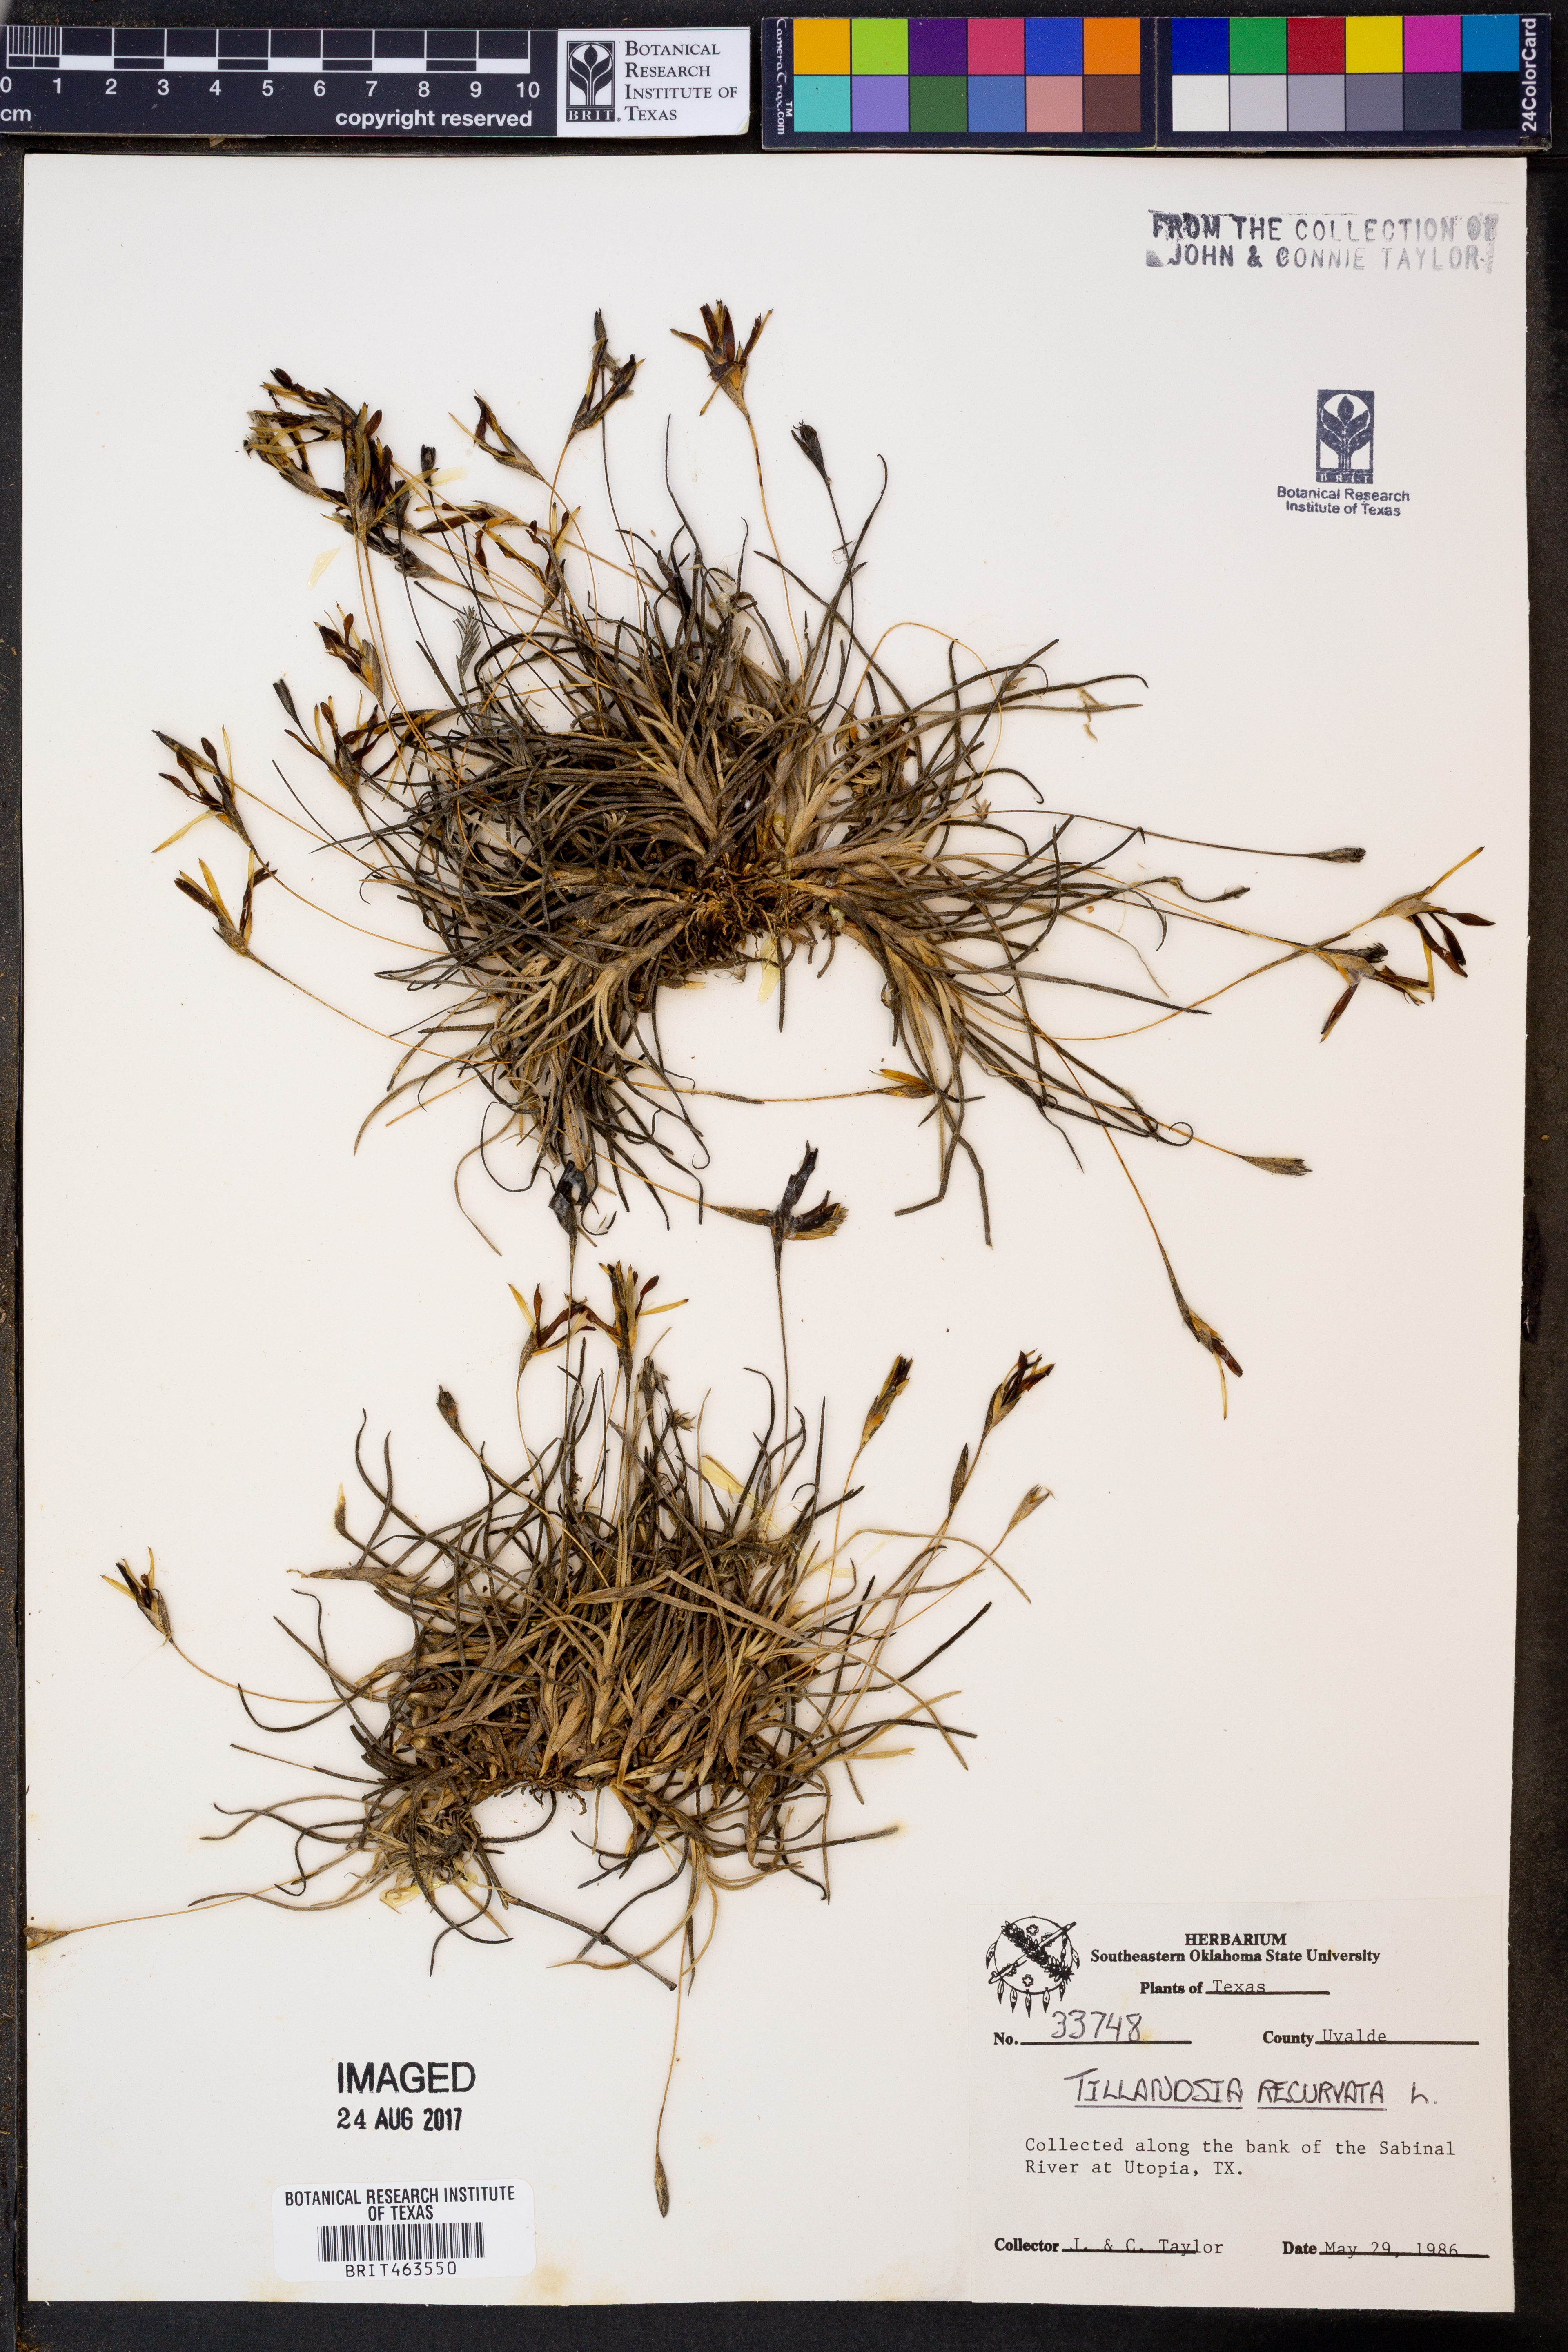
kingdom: Plantae
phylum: Tracheophyta
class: Liliopsida
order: Poales
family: Bromeliaceae
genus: Tillandsia
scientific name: Tillandsia recurvata
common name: Small ballmoss
